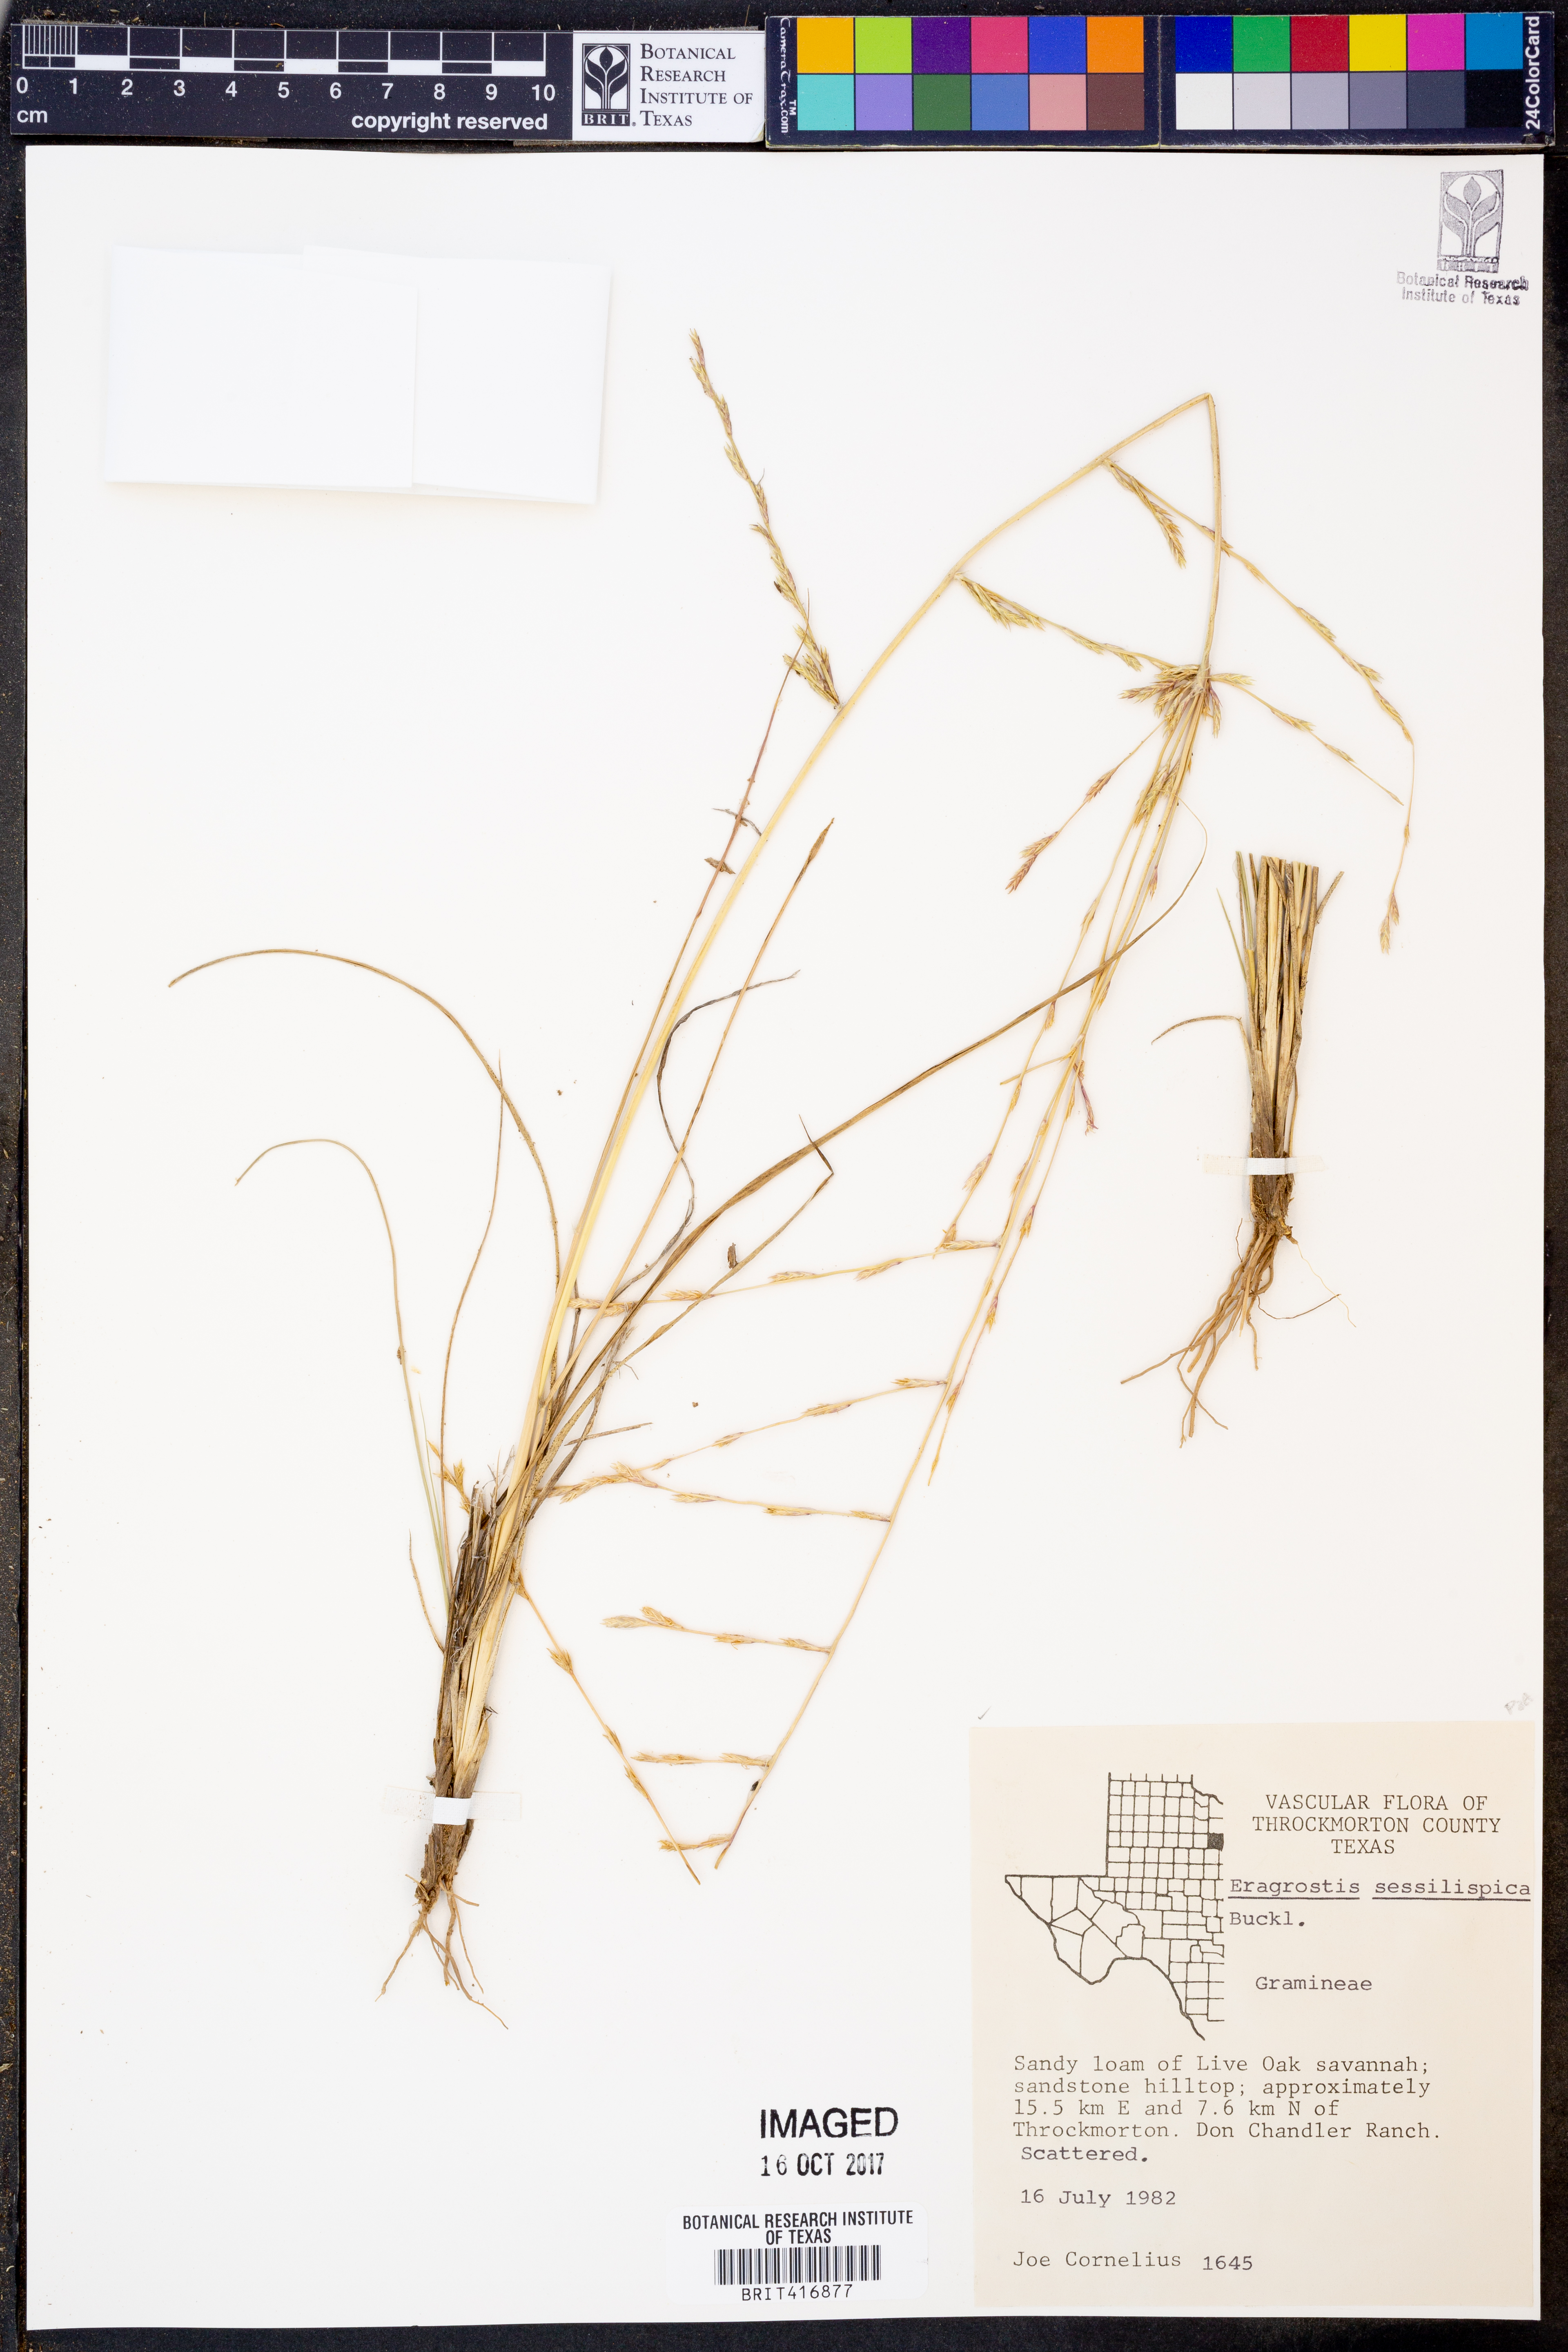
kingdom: Plantae
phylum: Tracheophyta
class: Liliopsida
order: Poales
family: Poaceae
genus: Eragrostis
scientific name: Eragrostis sessilispica
